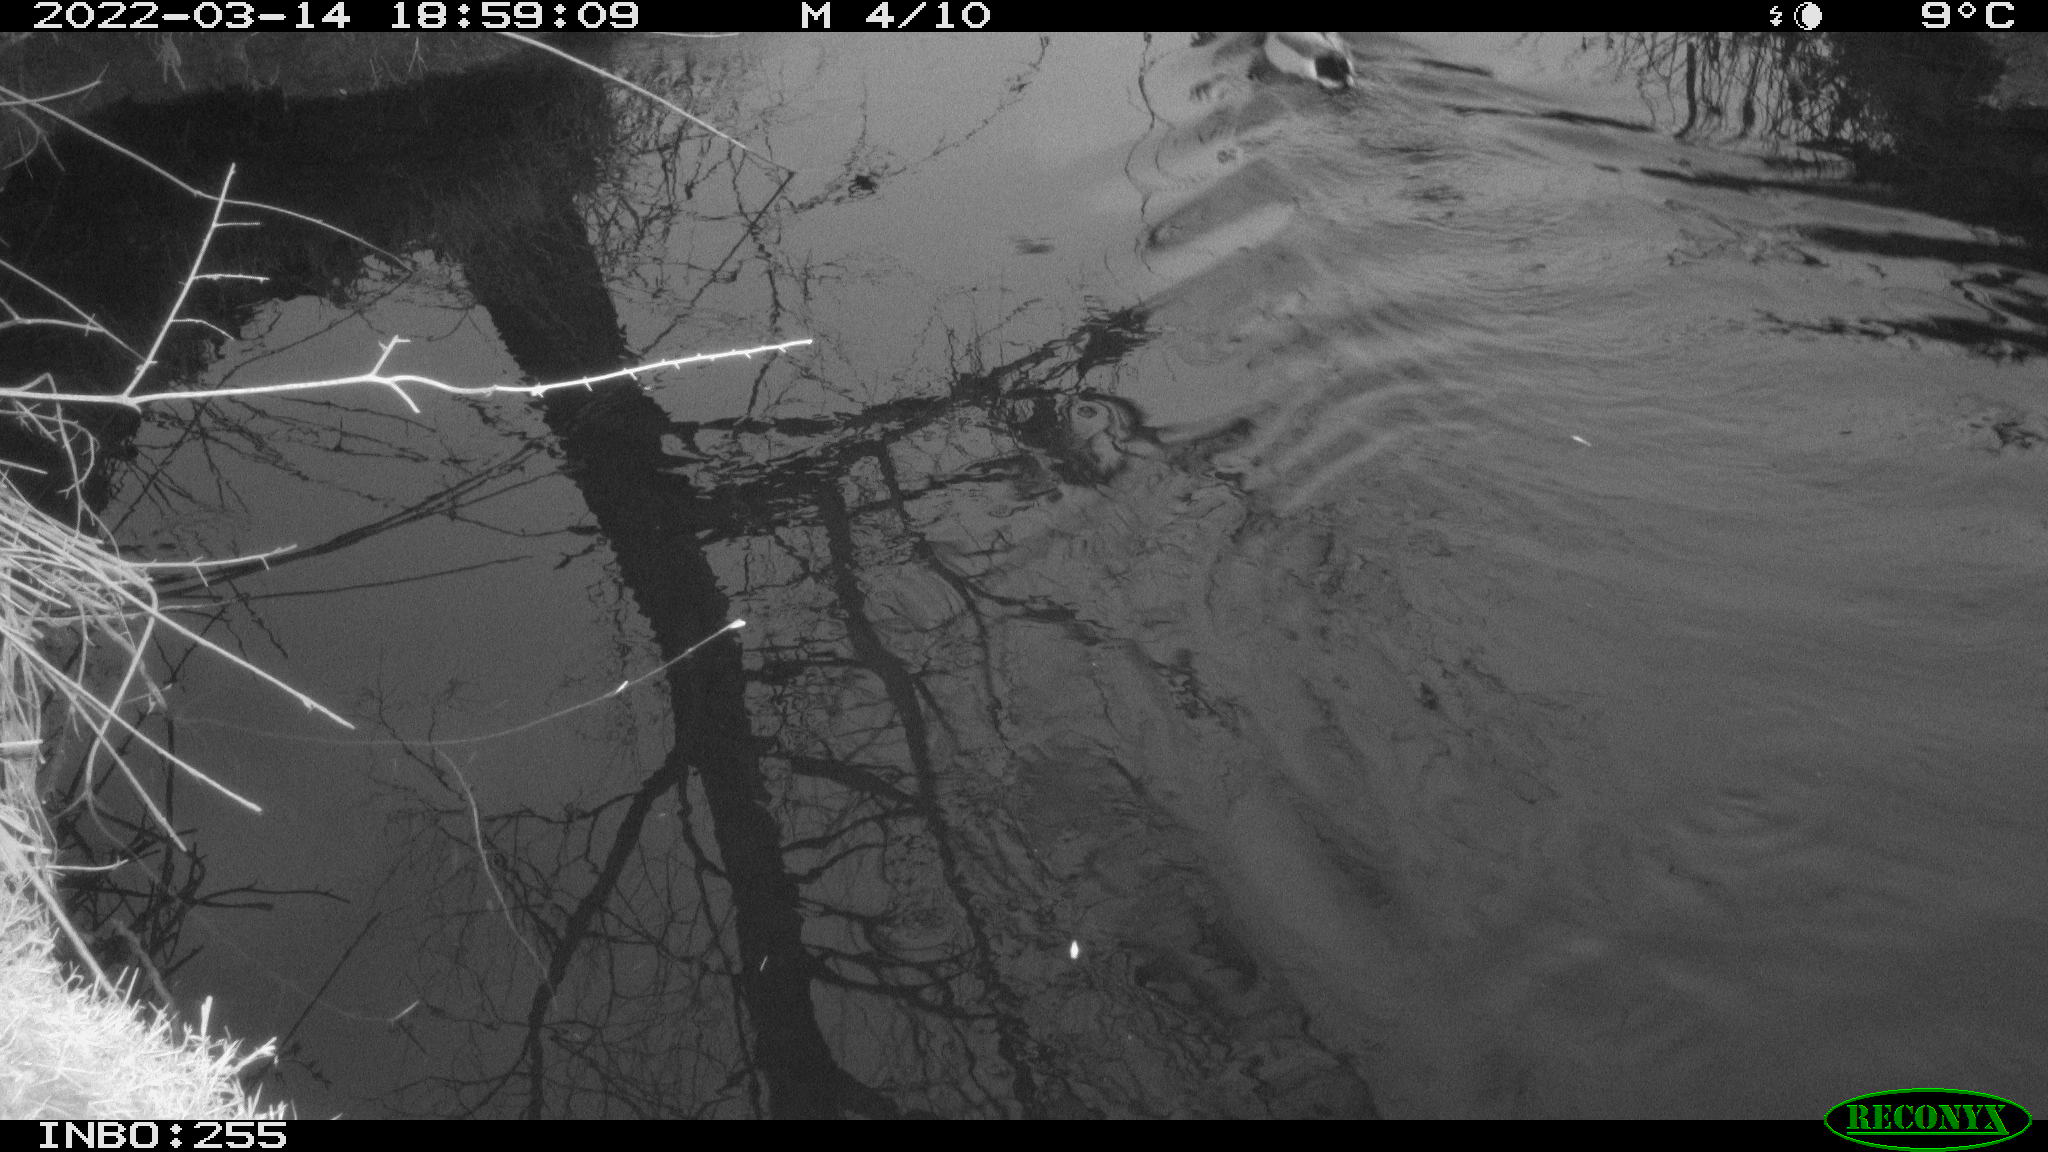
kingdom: Animalia
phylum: Chordata
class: Aves
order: Anseriformes
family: Anatidae
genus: Anas
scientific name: Anas platyrhynchos
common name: Mallard
